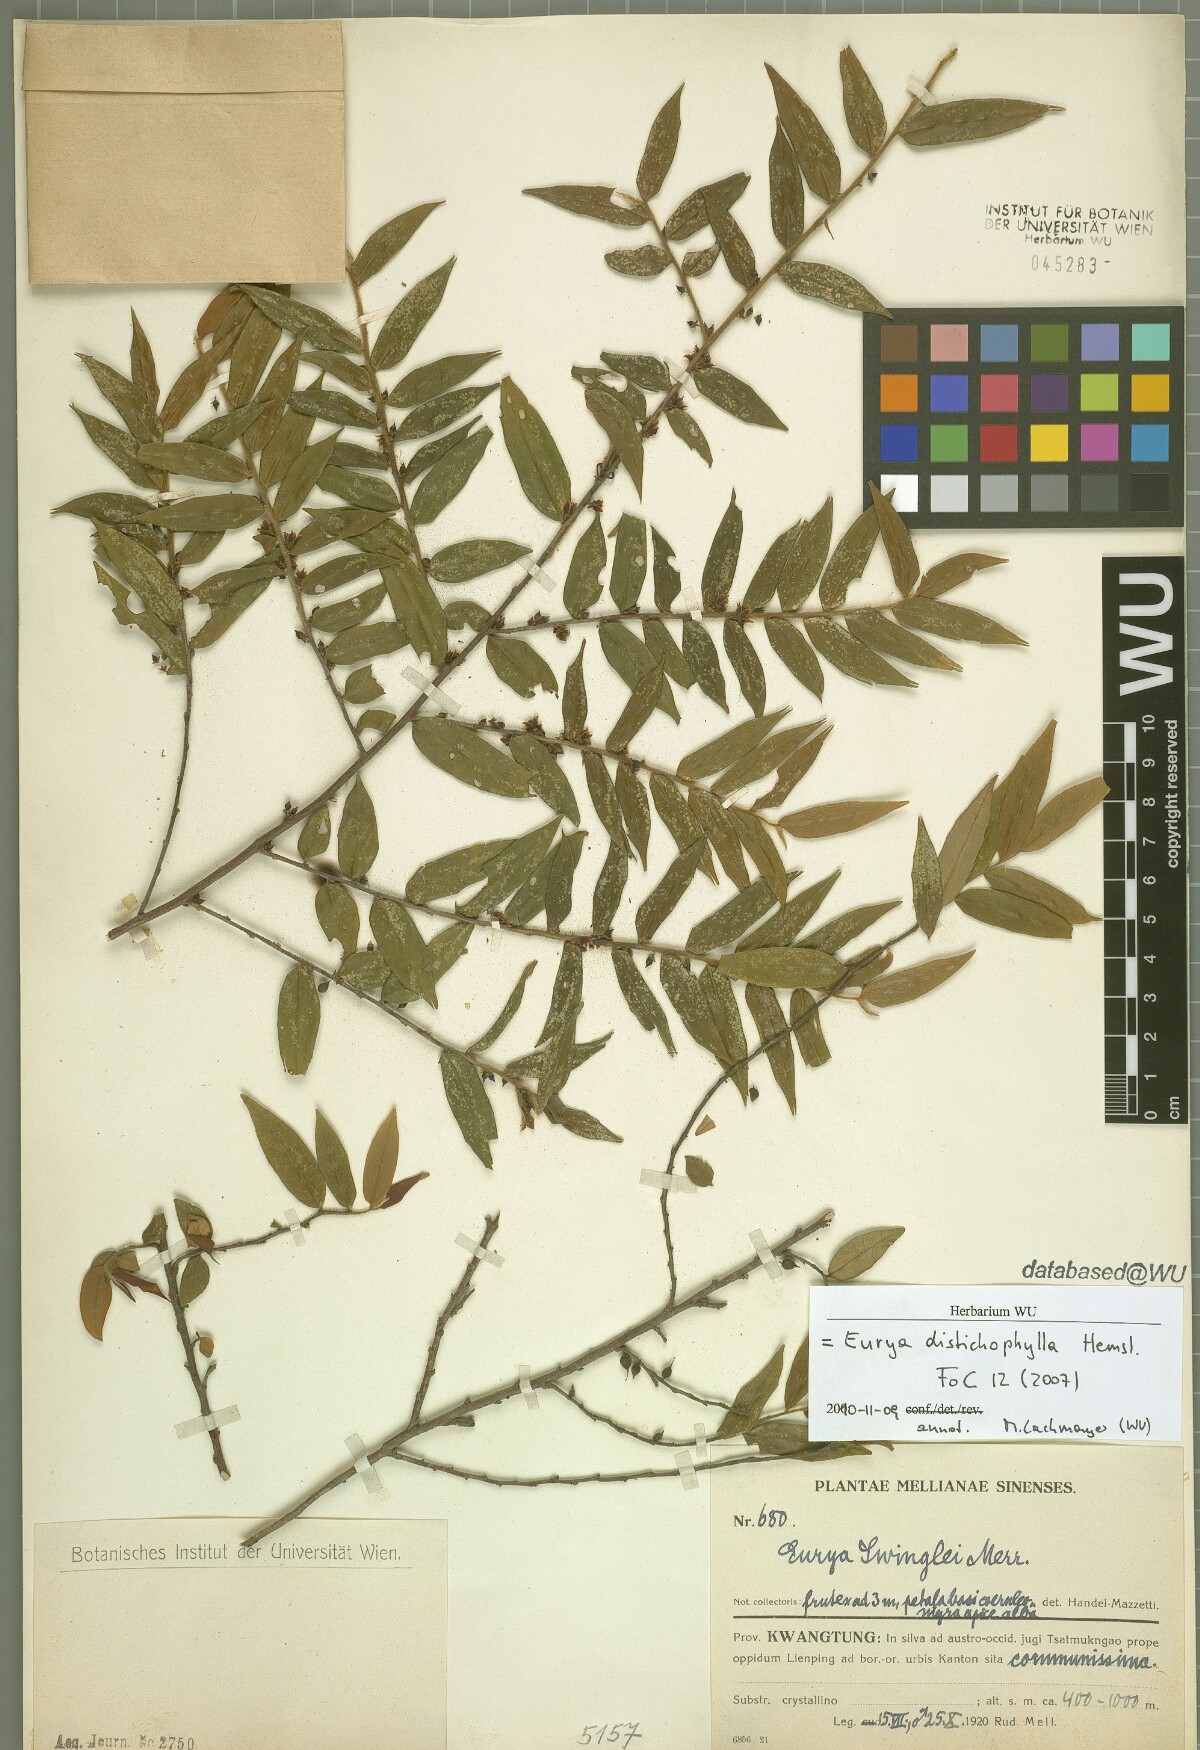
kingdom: Plantae
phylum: Tracheophyta
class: Magnoliopsida
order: Ericales
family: Pentaphylacaceae
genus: Eurya
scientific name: Eurya distichophylla
